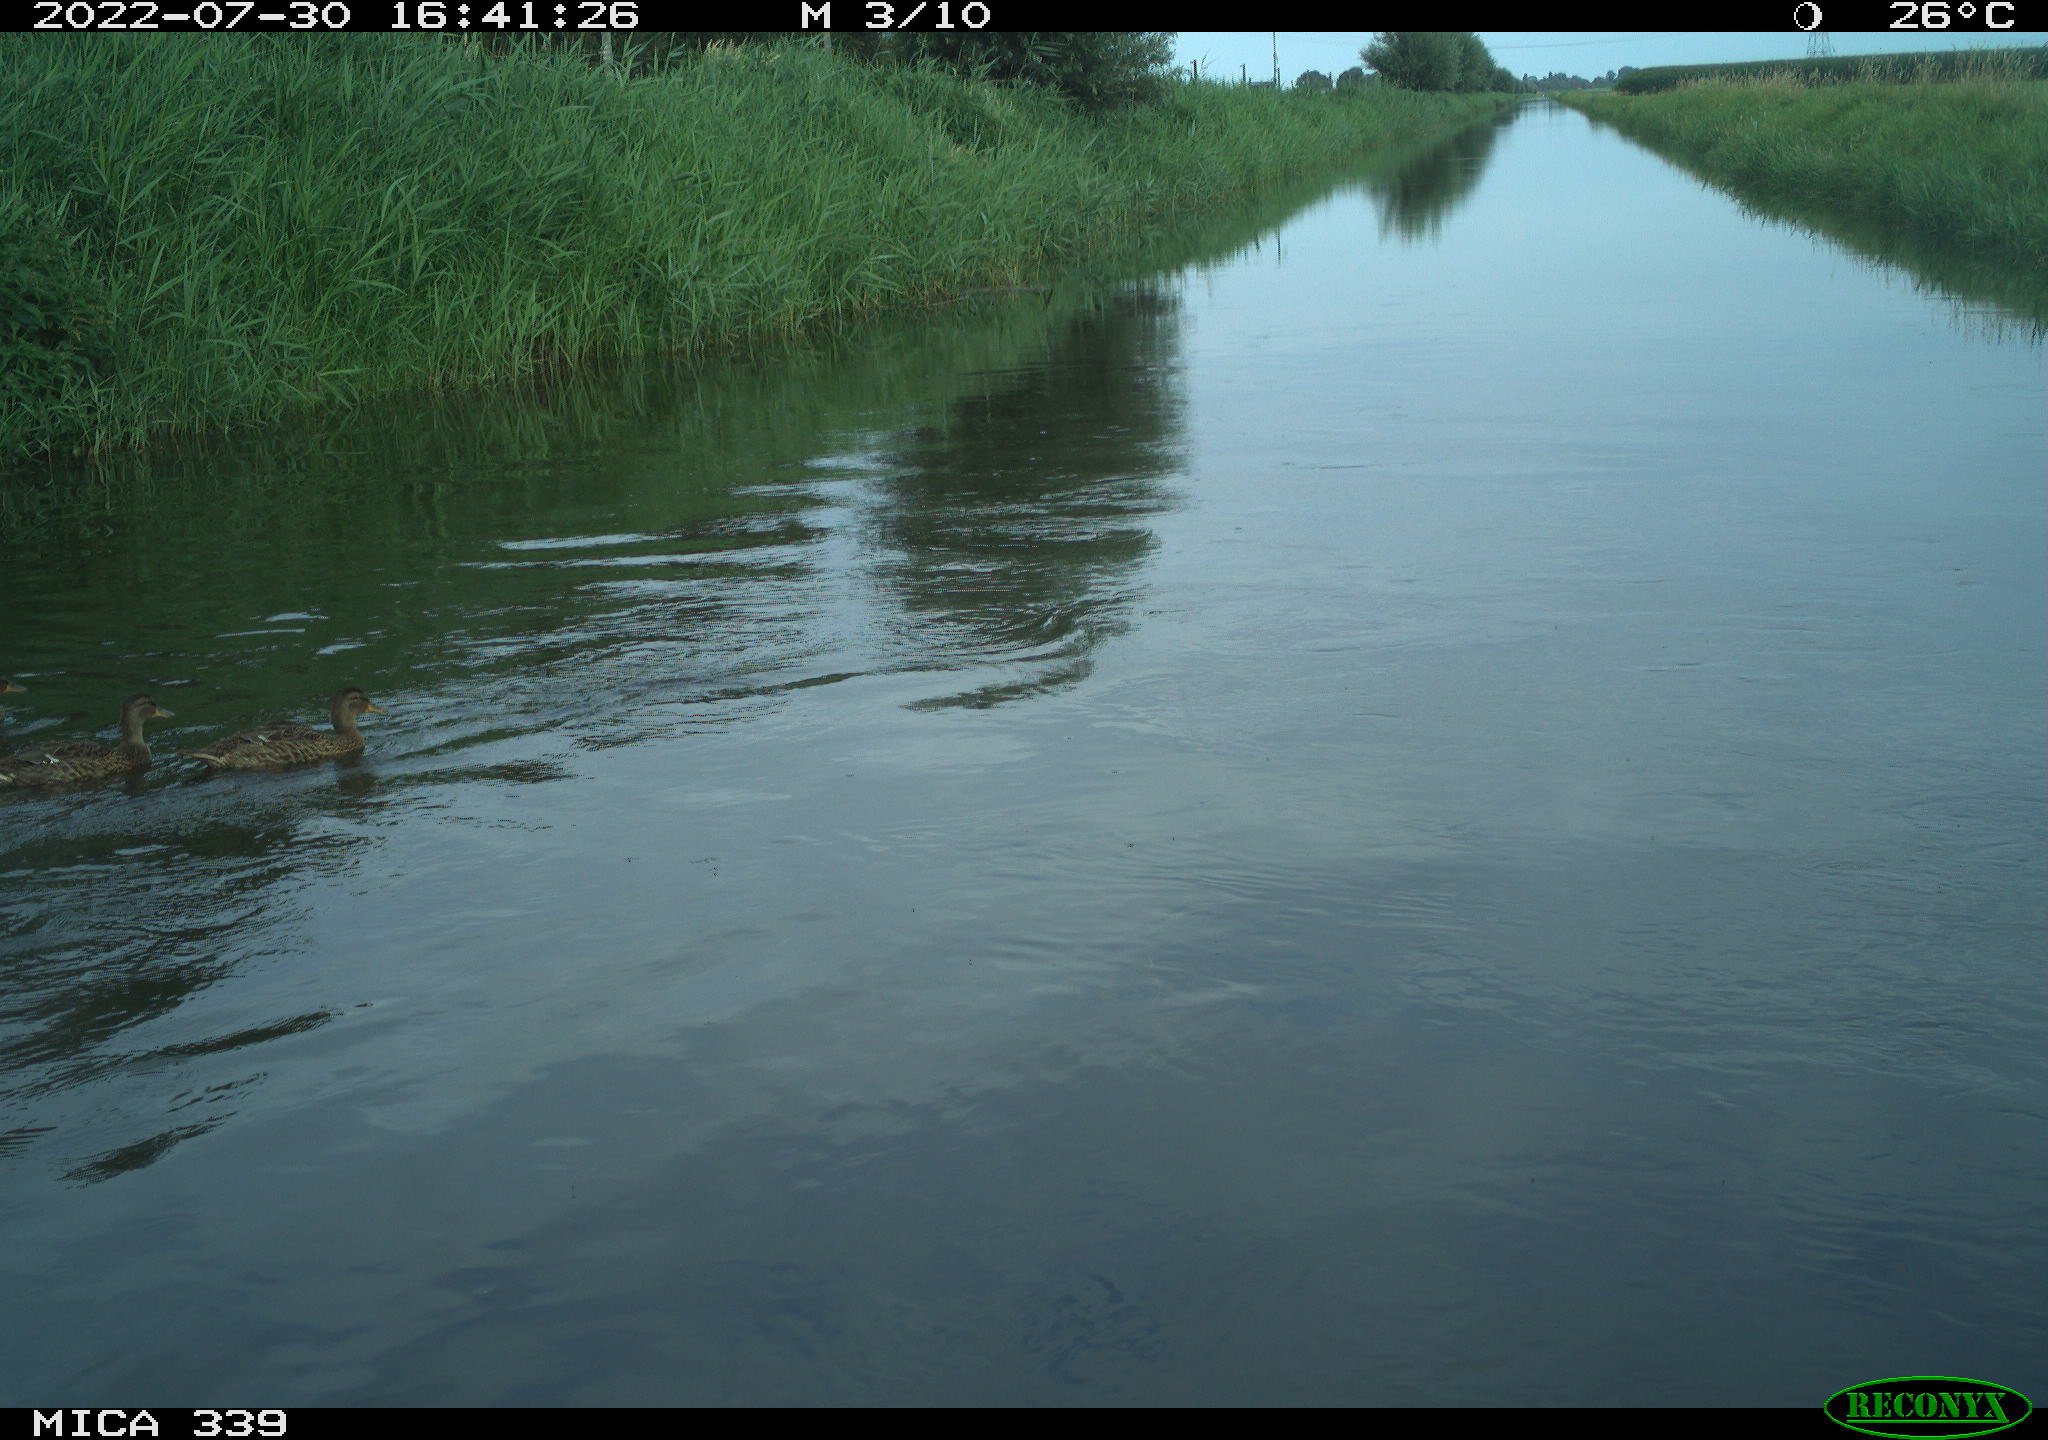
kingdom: Animalia
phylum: Chordata
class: Aves
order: Anseriformes
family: Anatidae
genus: Anas
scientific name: Anas platyrhynchos
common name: Mallard
